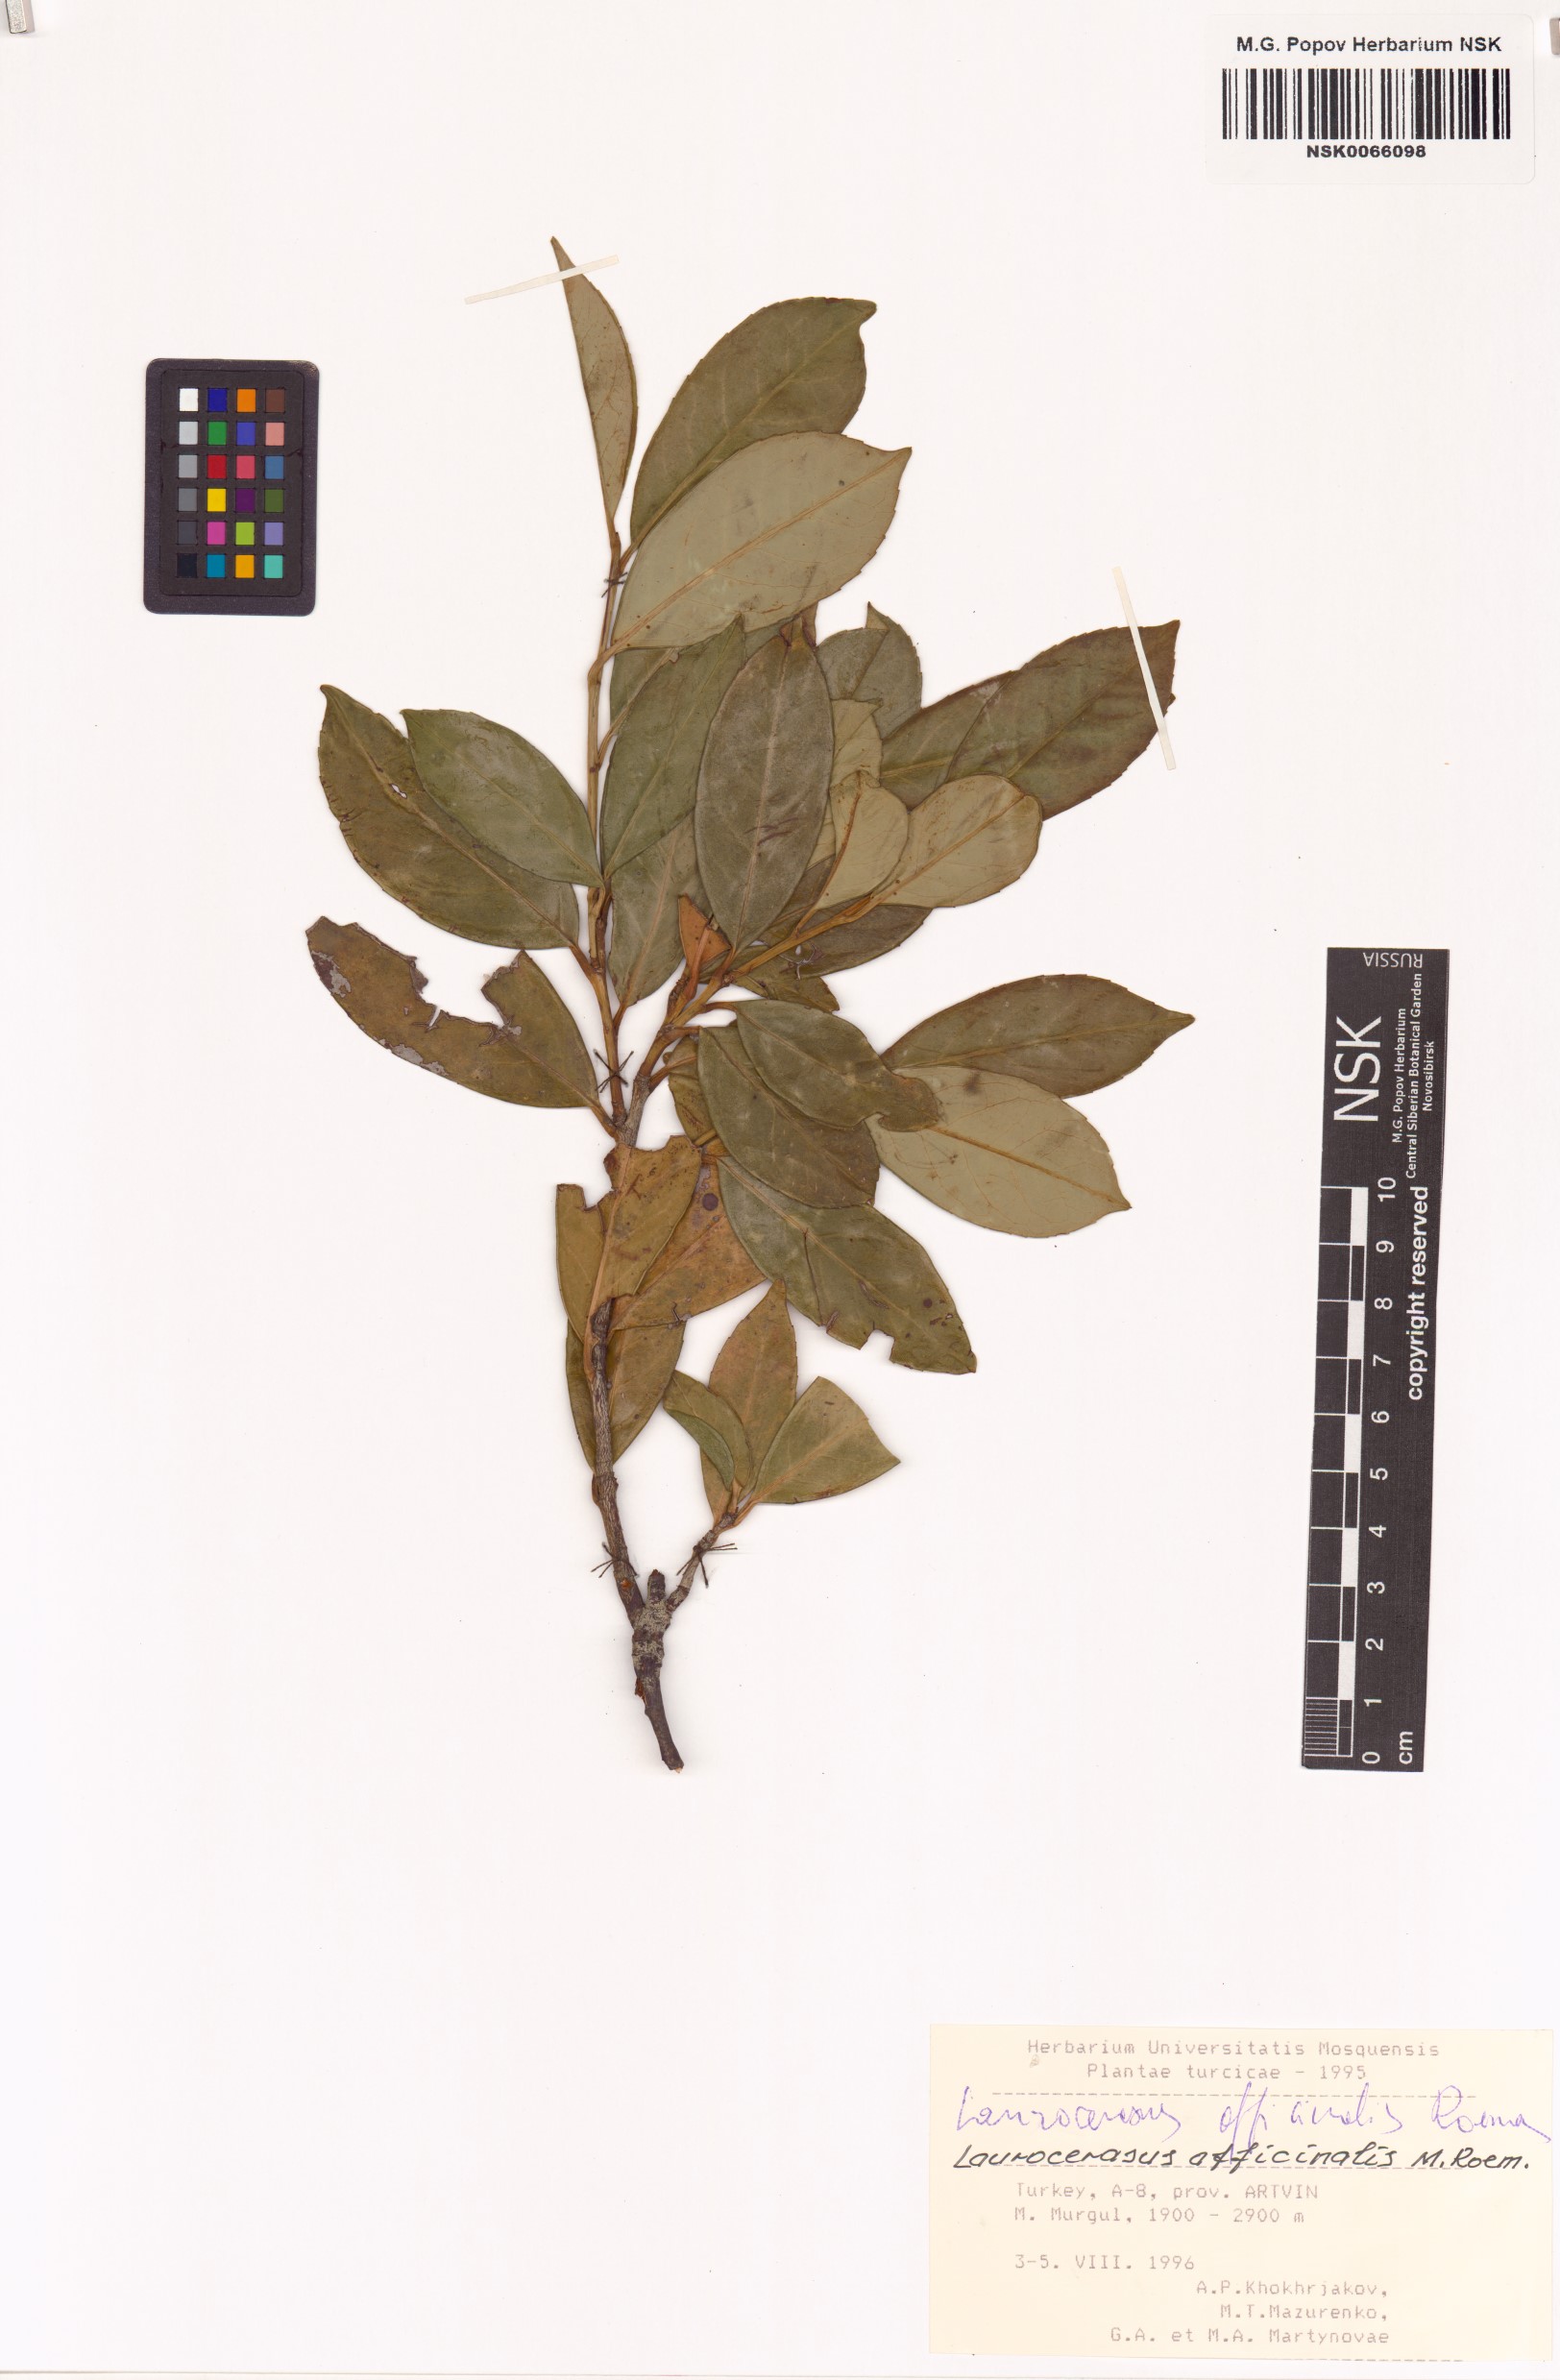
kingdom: Plantae
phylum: Tracheophyta
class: Magnoliopsida
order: Rosales
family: Rosaceae
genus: Prunus
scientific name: Prunus laurocerasus
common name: Cherry laurel
